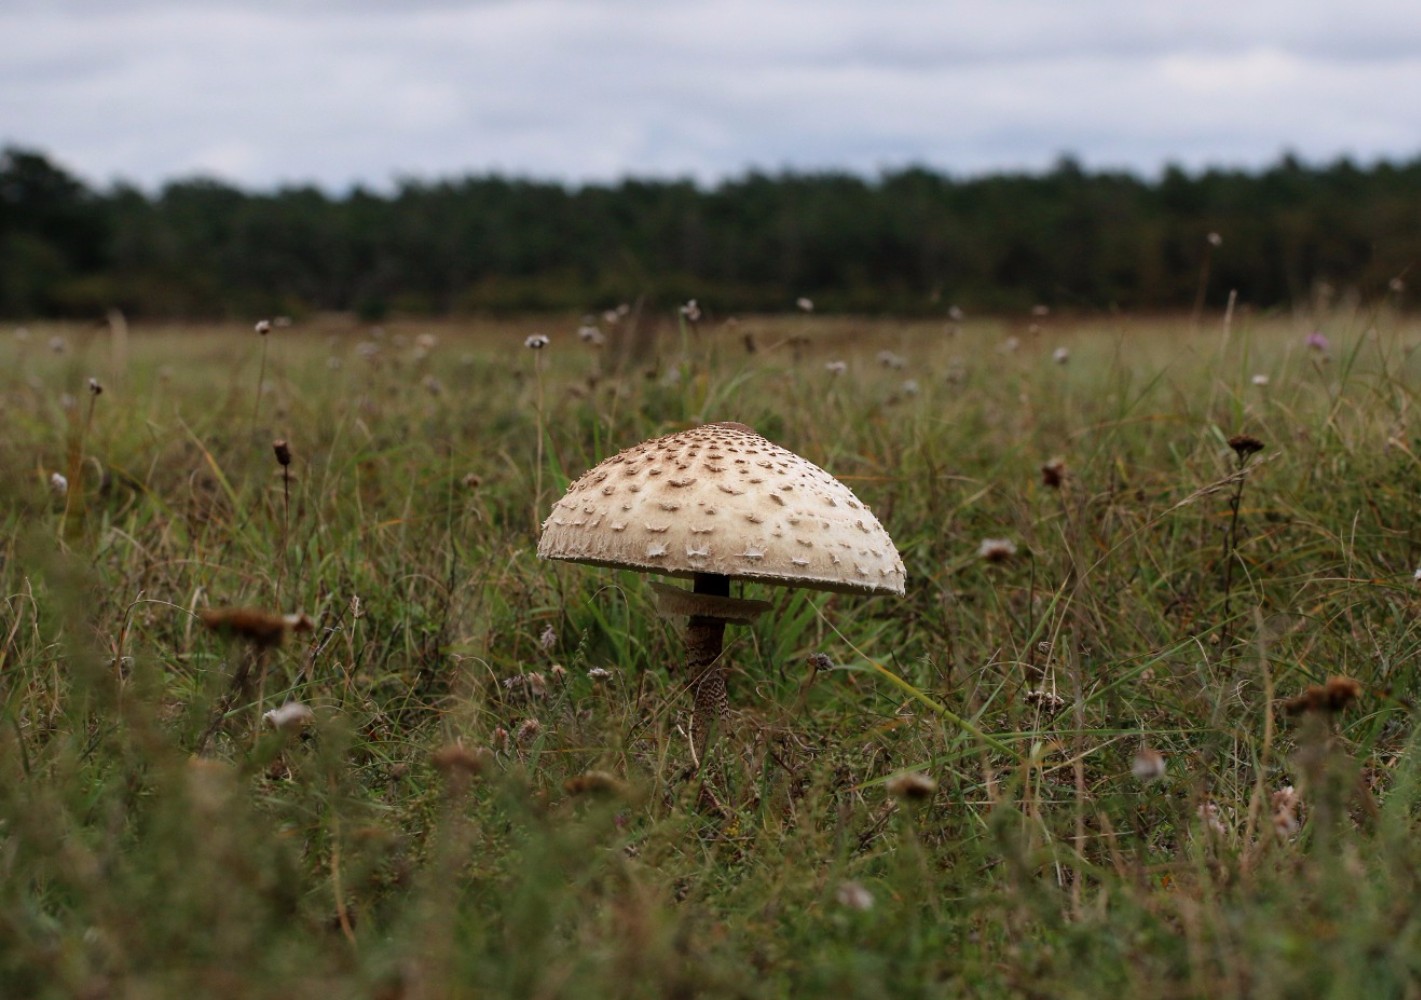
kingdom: Fungi
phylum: Basidiomycota
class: Agaricomycetes
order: Agaricales
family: Agaricaceae
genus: Macrolepiota
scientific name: Macrolepiota procera
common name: stor kæmpeparasolhat
